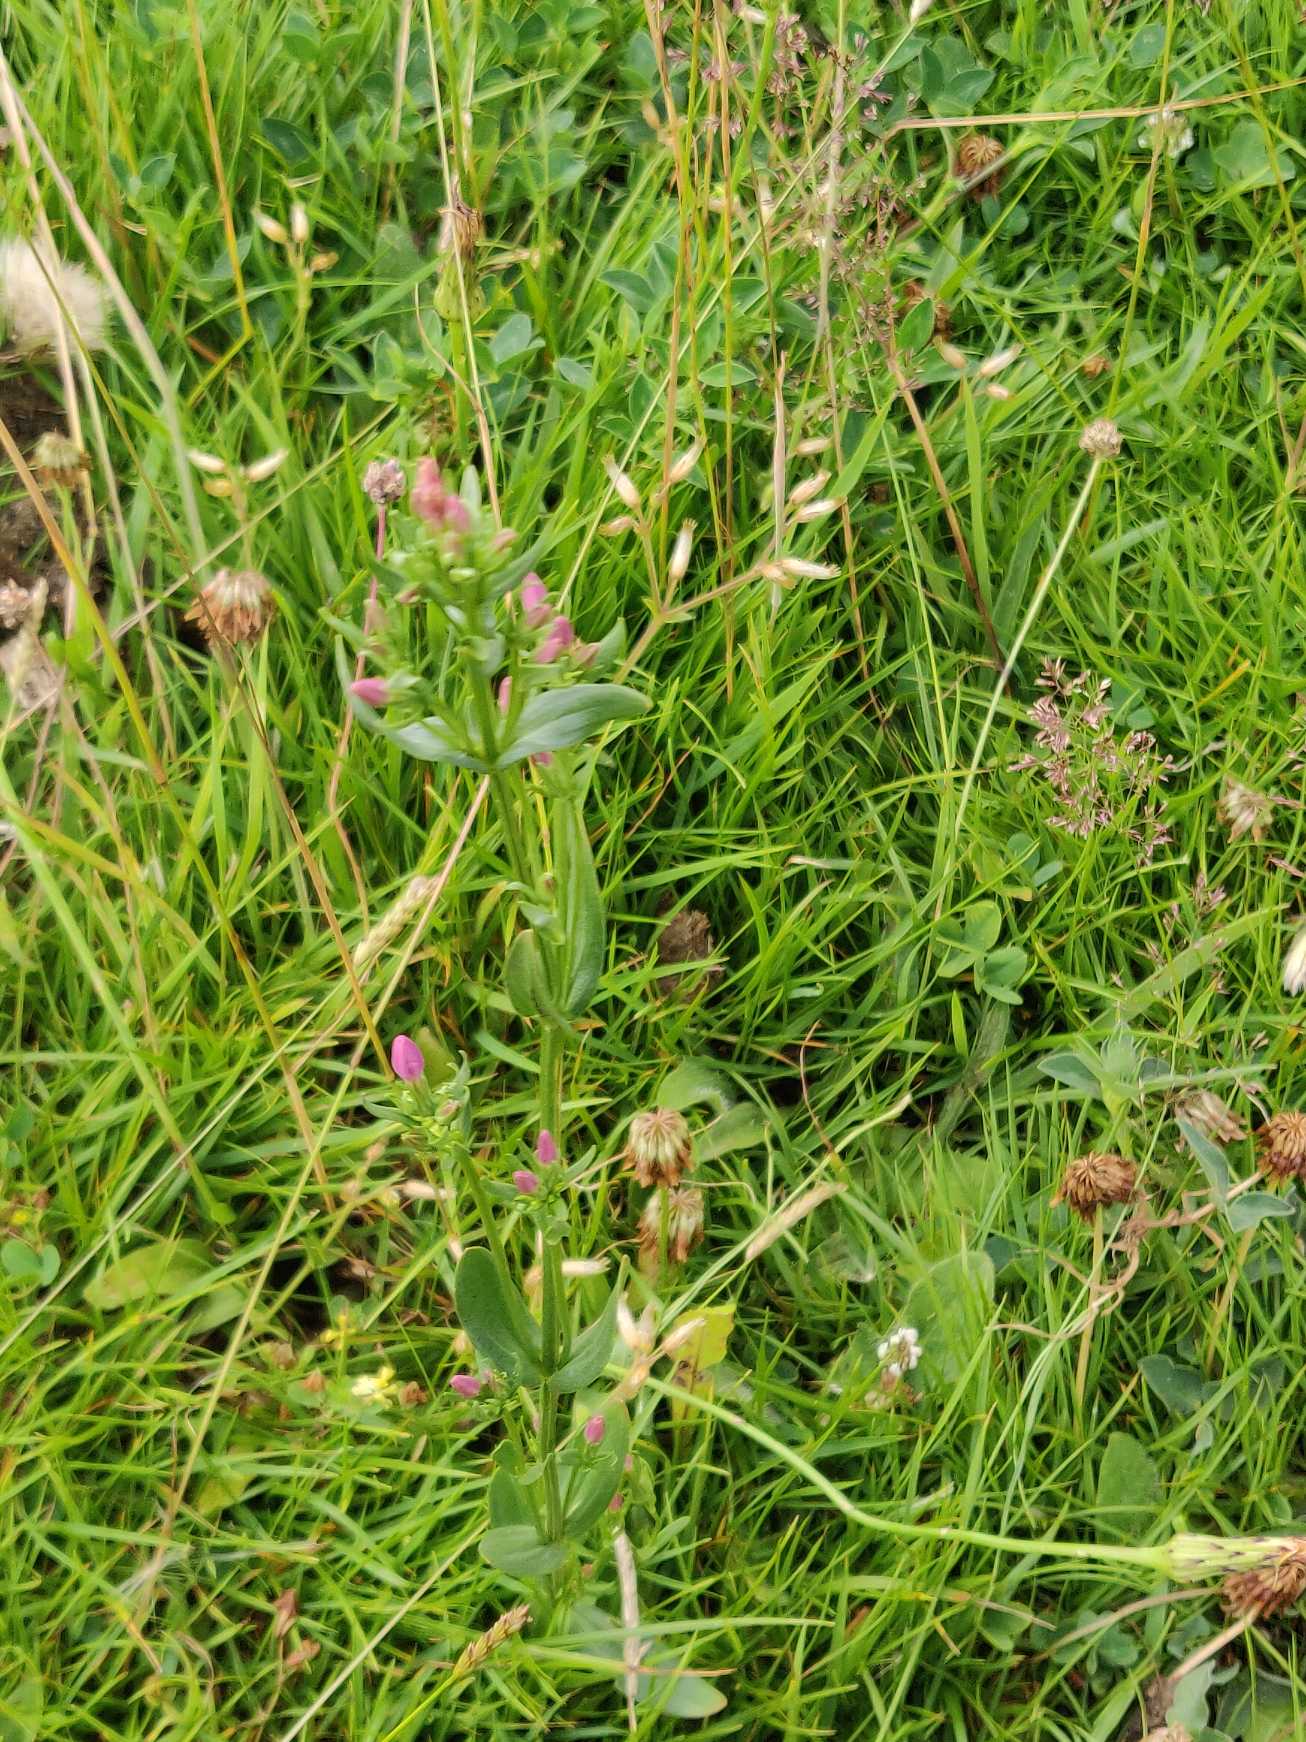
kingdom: Plantae
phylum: Tracheophyta
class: Magnoliopsida
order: Gentianales
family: Gentianaceae
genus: Centaurium
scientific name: Centaurium erythraea
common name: Mark-tusindgylden
